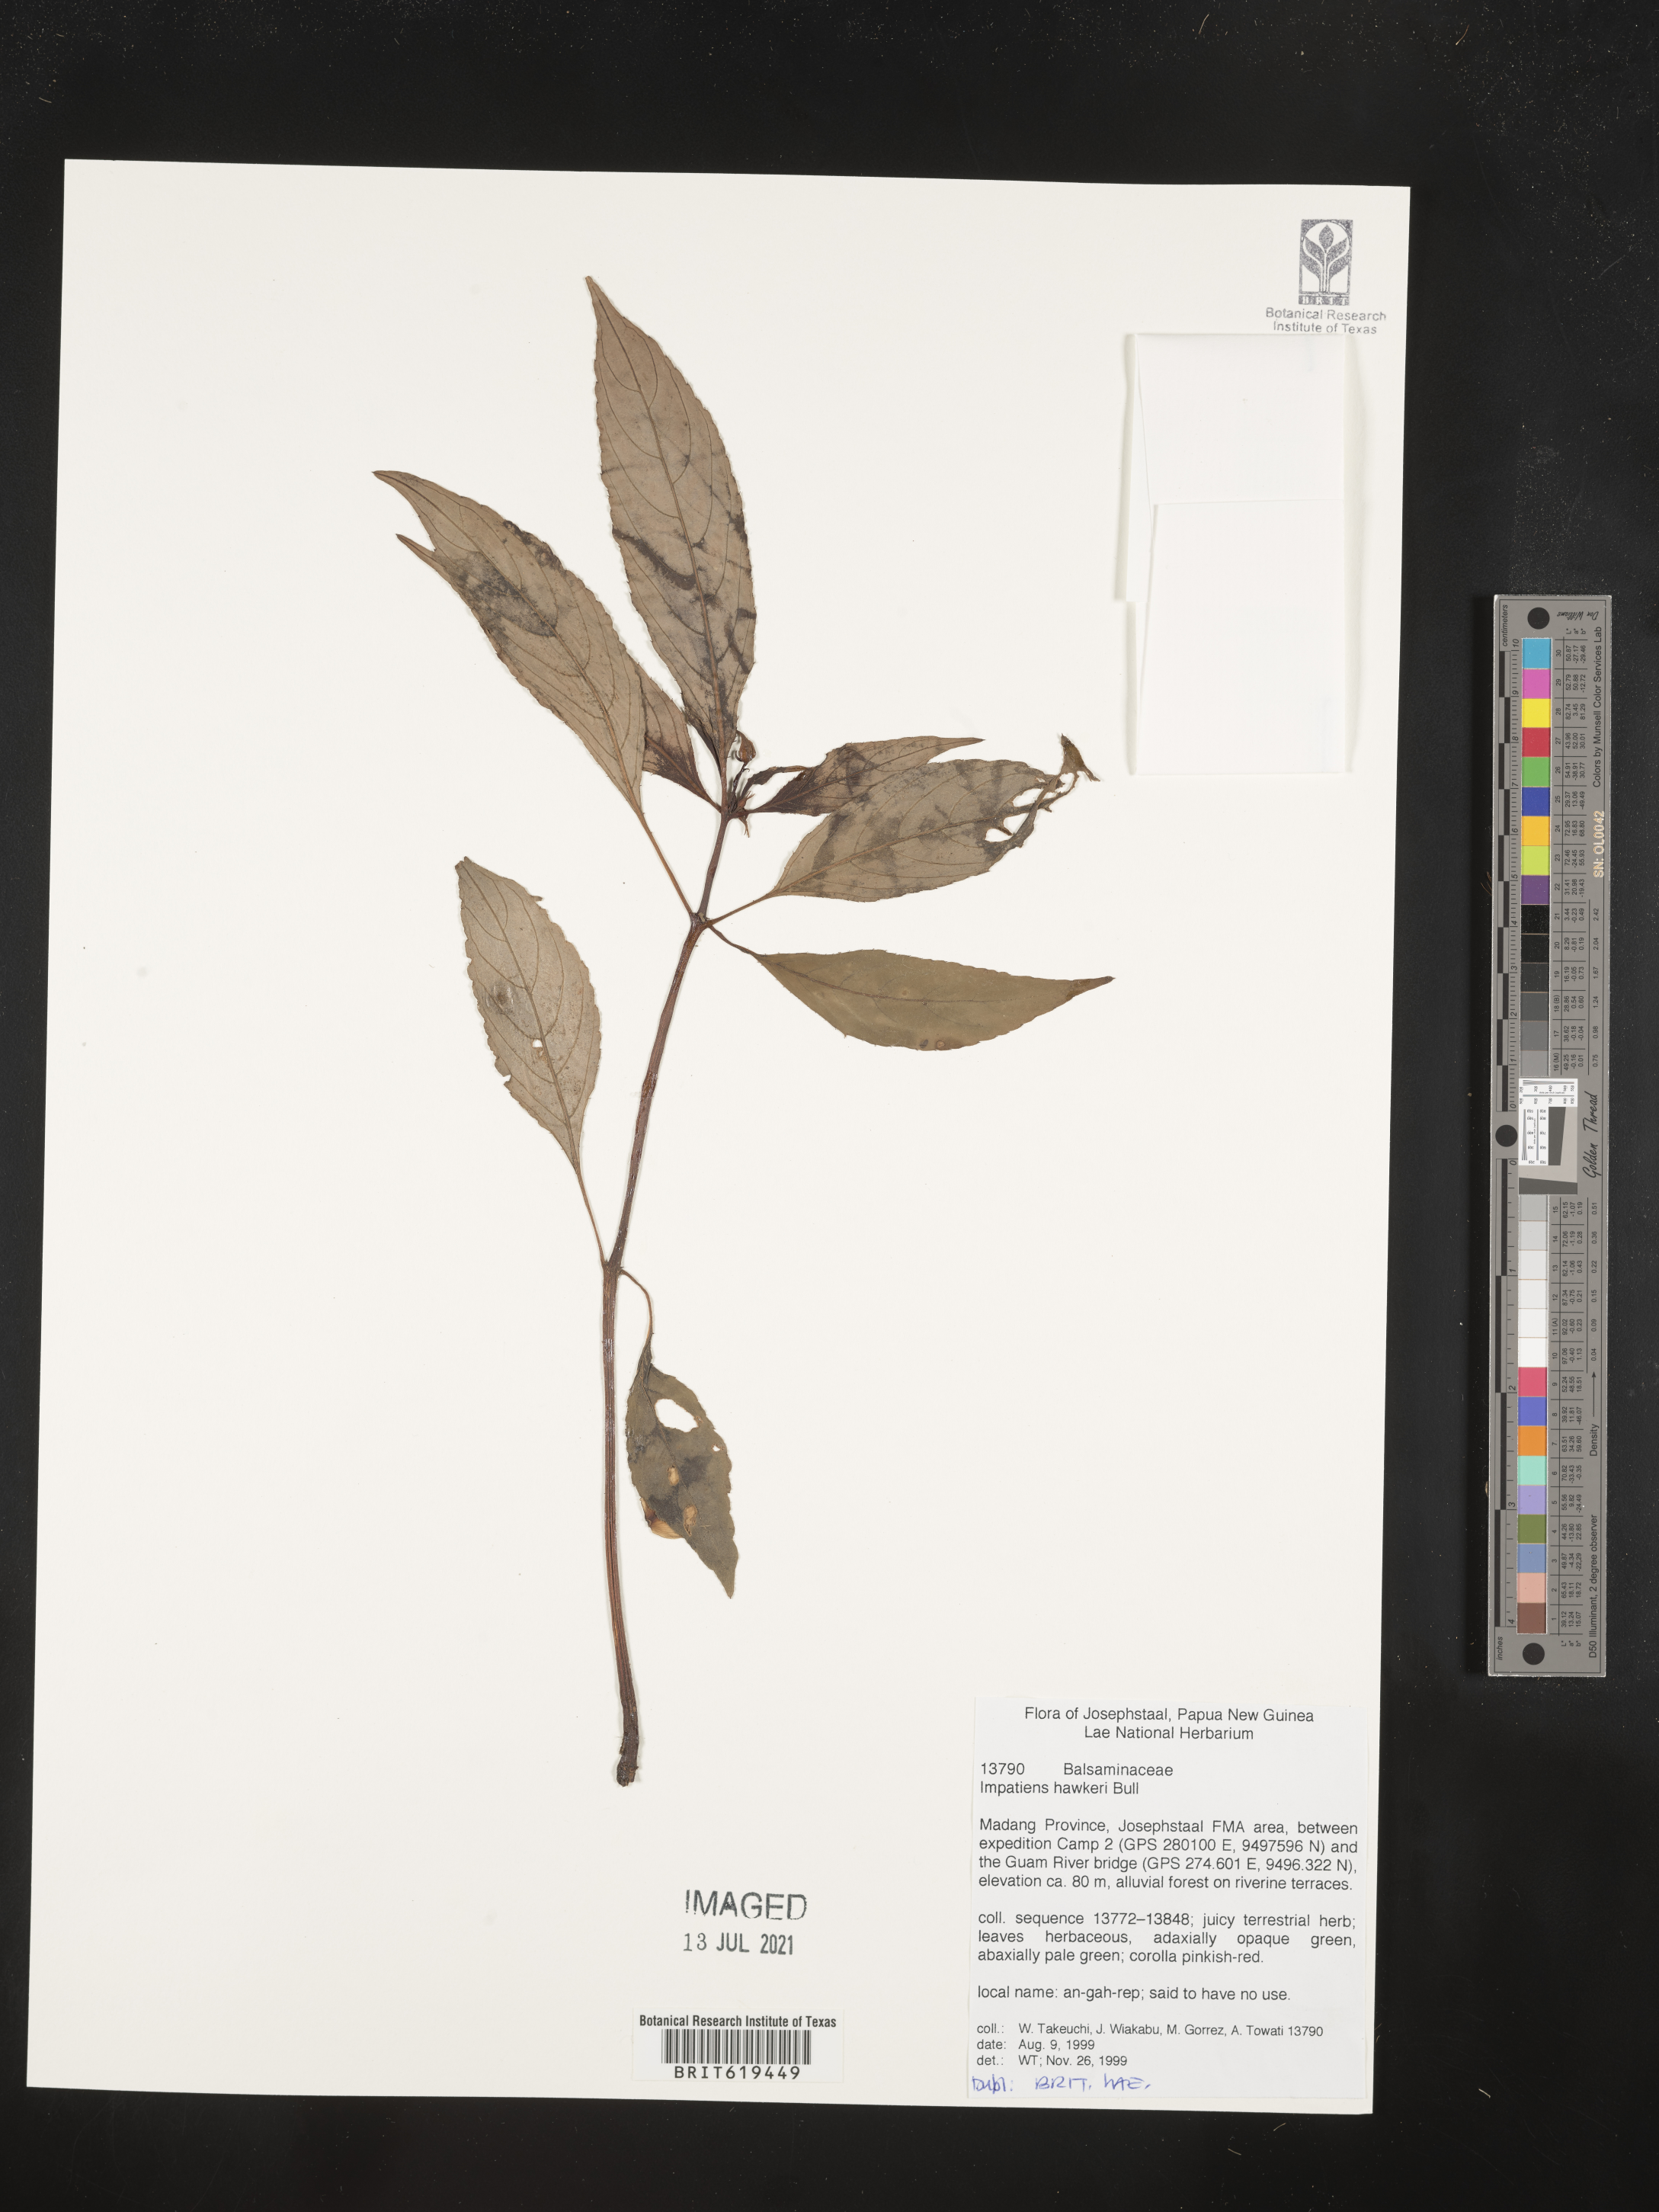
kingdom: Plantae
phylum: Tracheophyta
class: Magnoliopsida
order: Ericales
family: Balsaminaceae
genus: Impatiens
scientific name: Impatiens hawkeri
